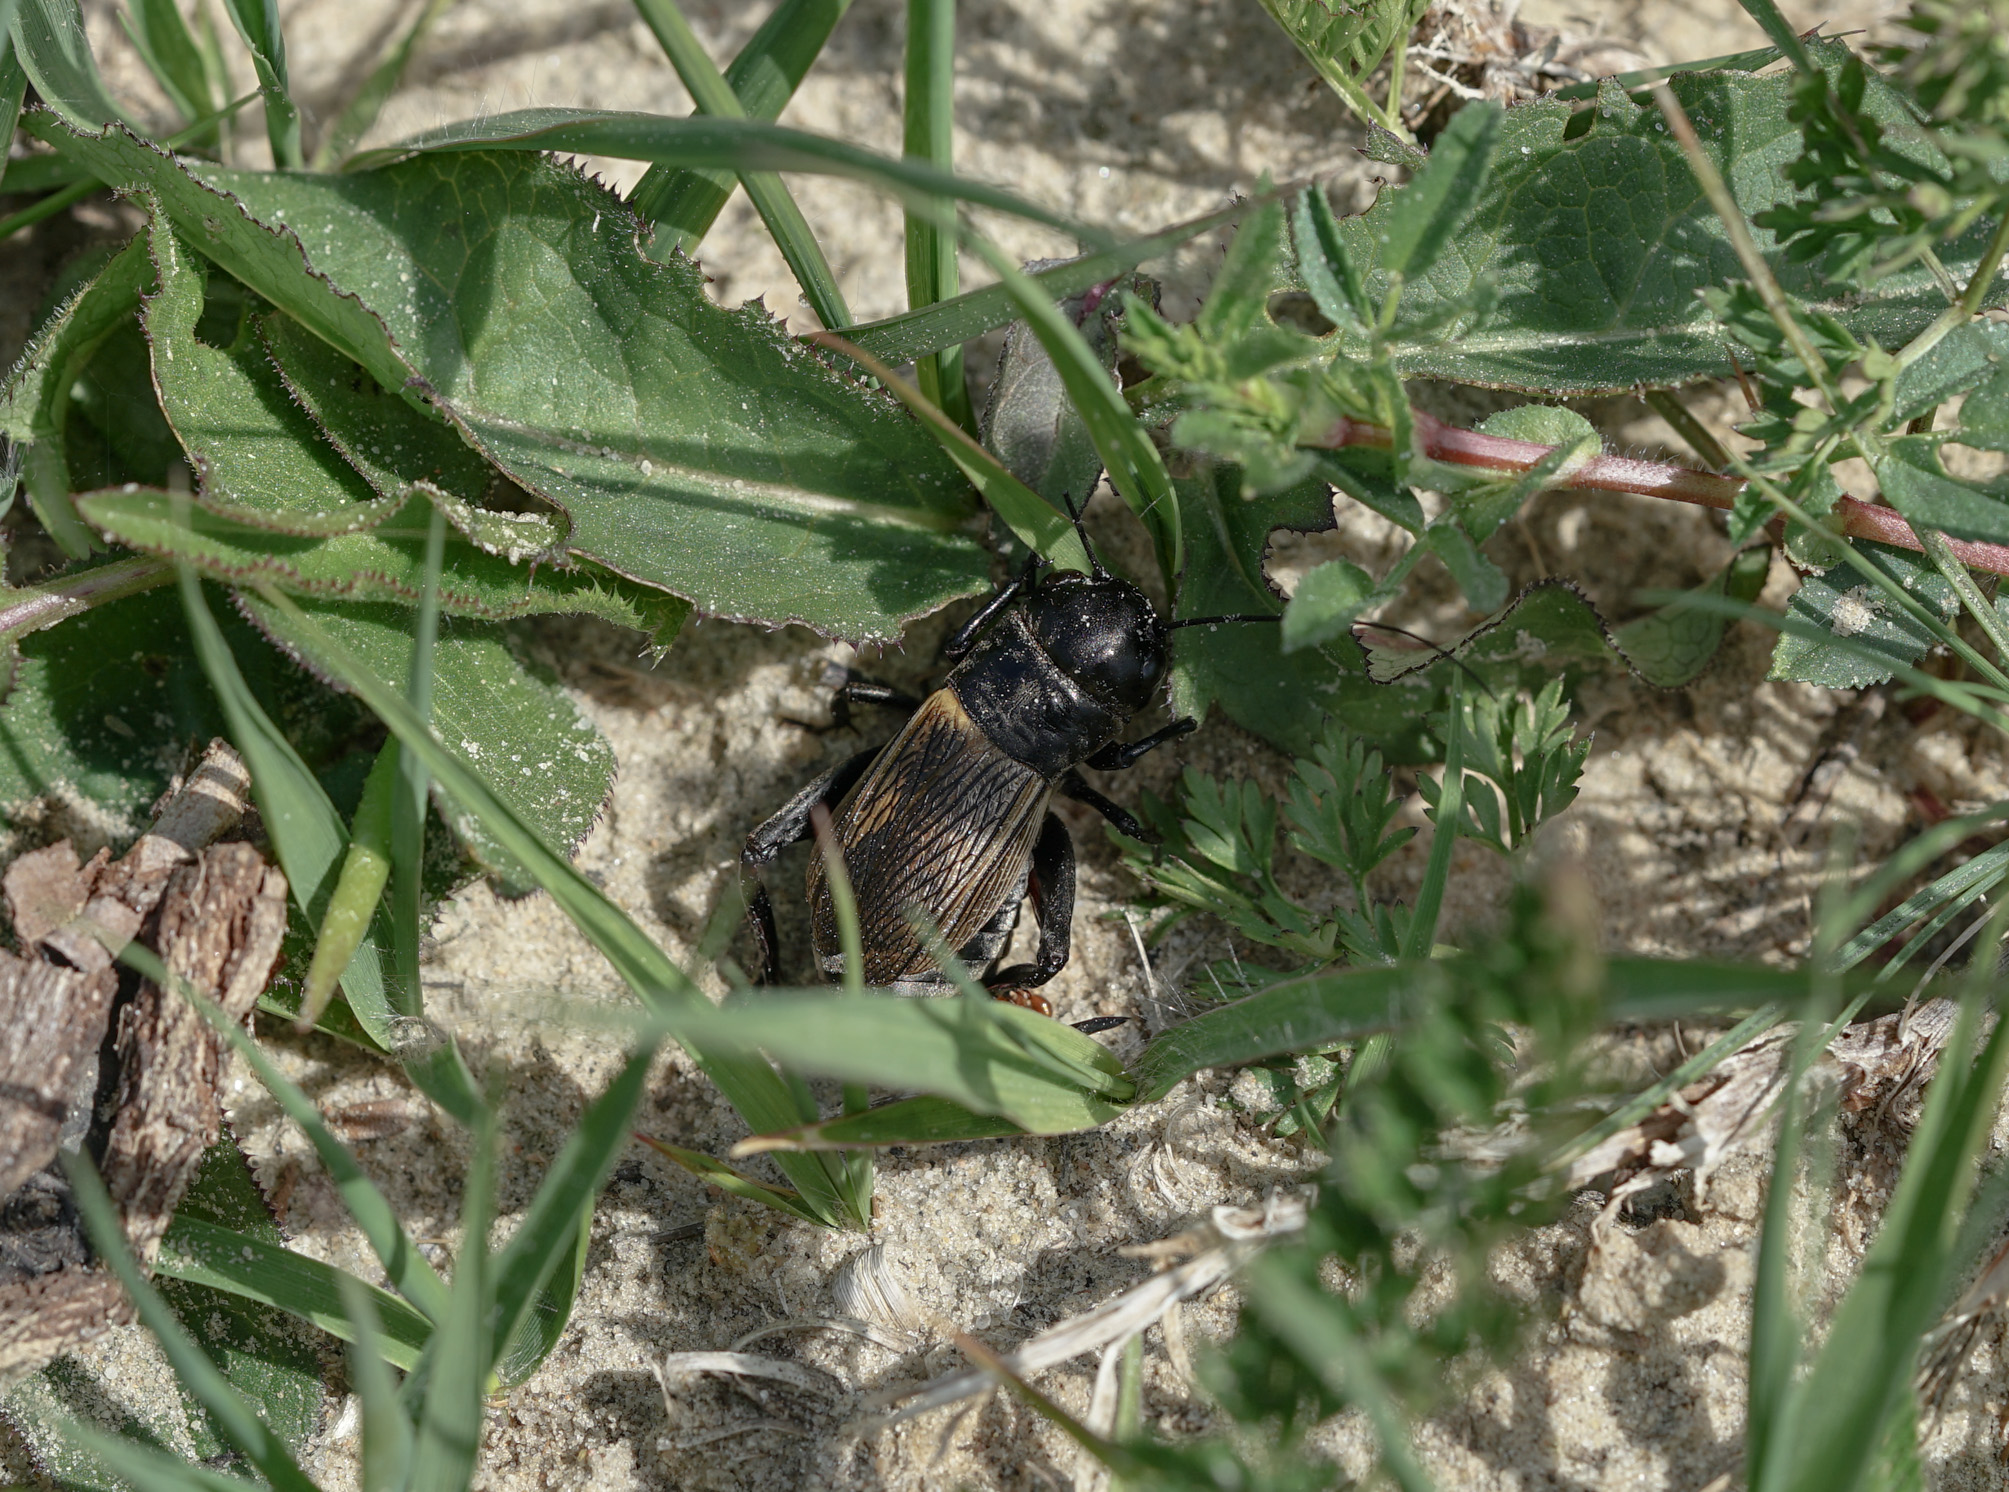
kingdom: Animalia
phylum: Arthropoda
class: Insecta
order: Orthoptera
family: Gryllidae
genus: Gryllus
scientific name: Gryllus campestris
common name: Field cricket
